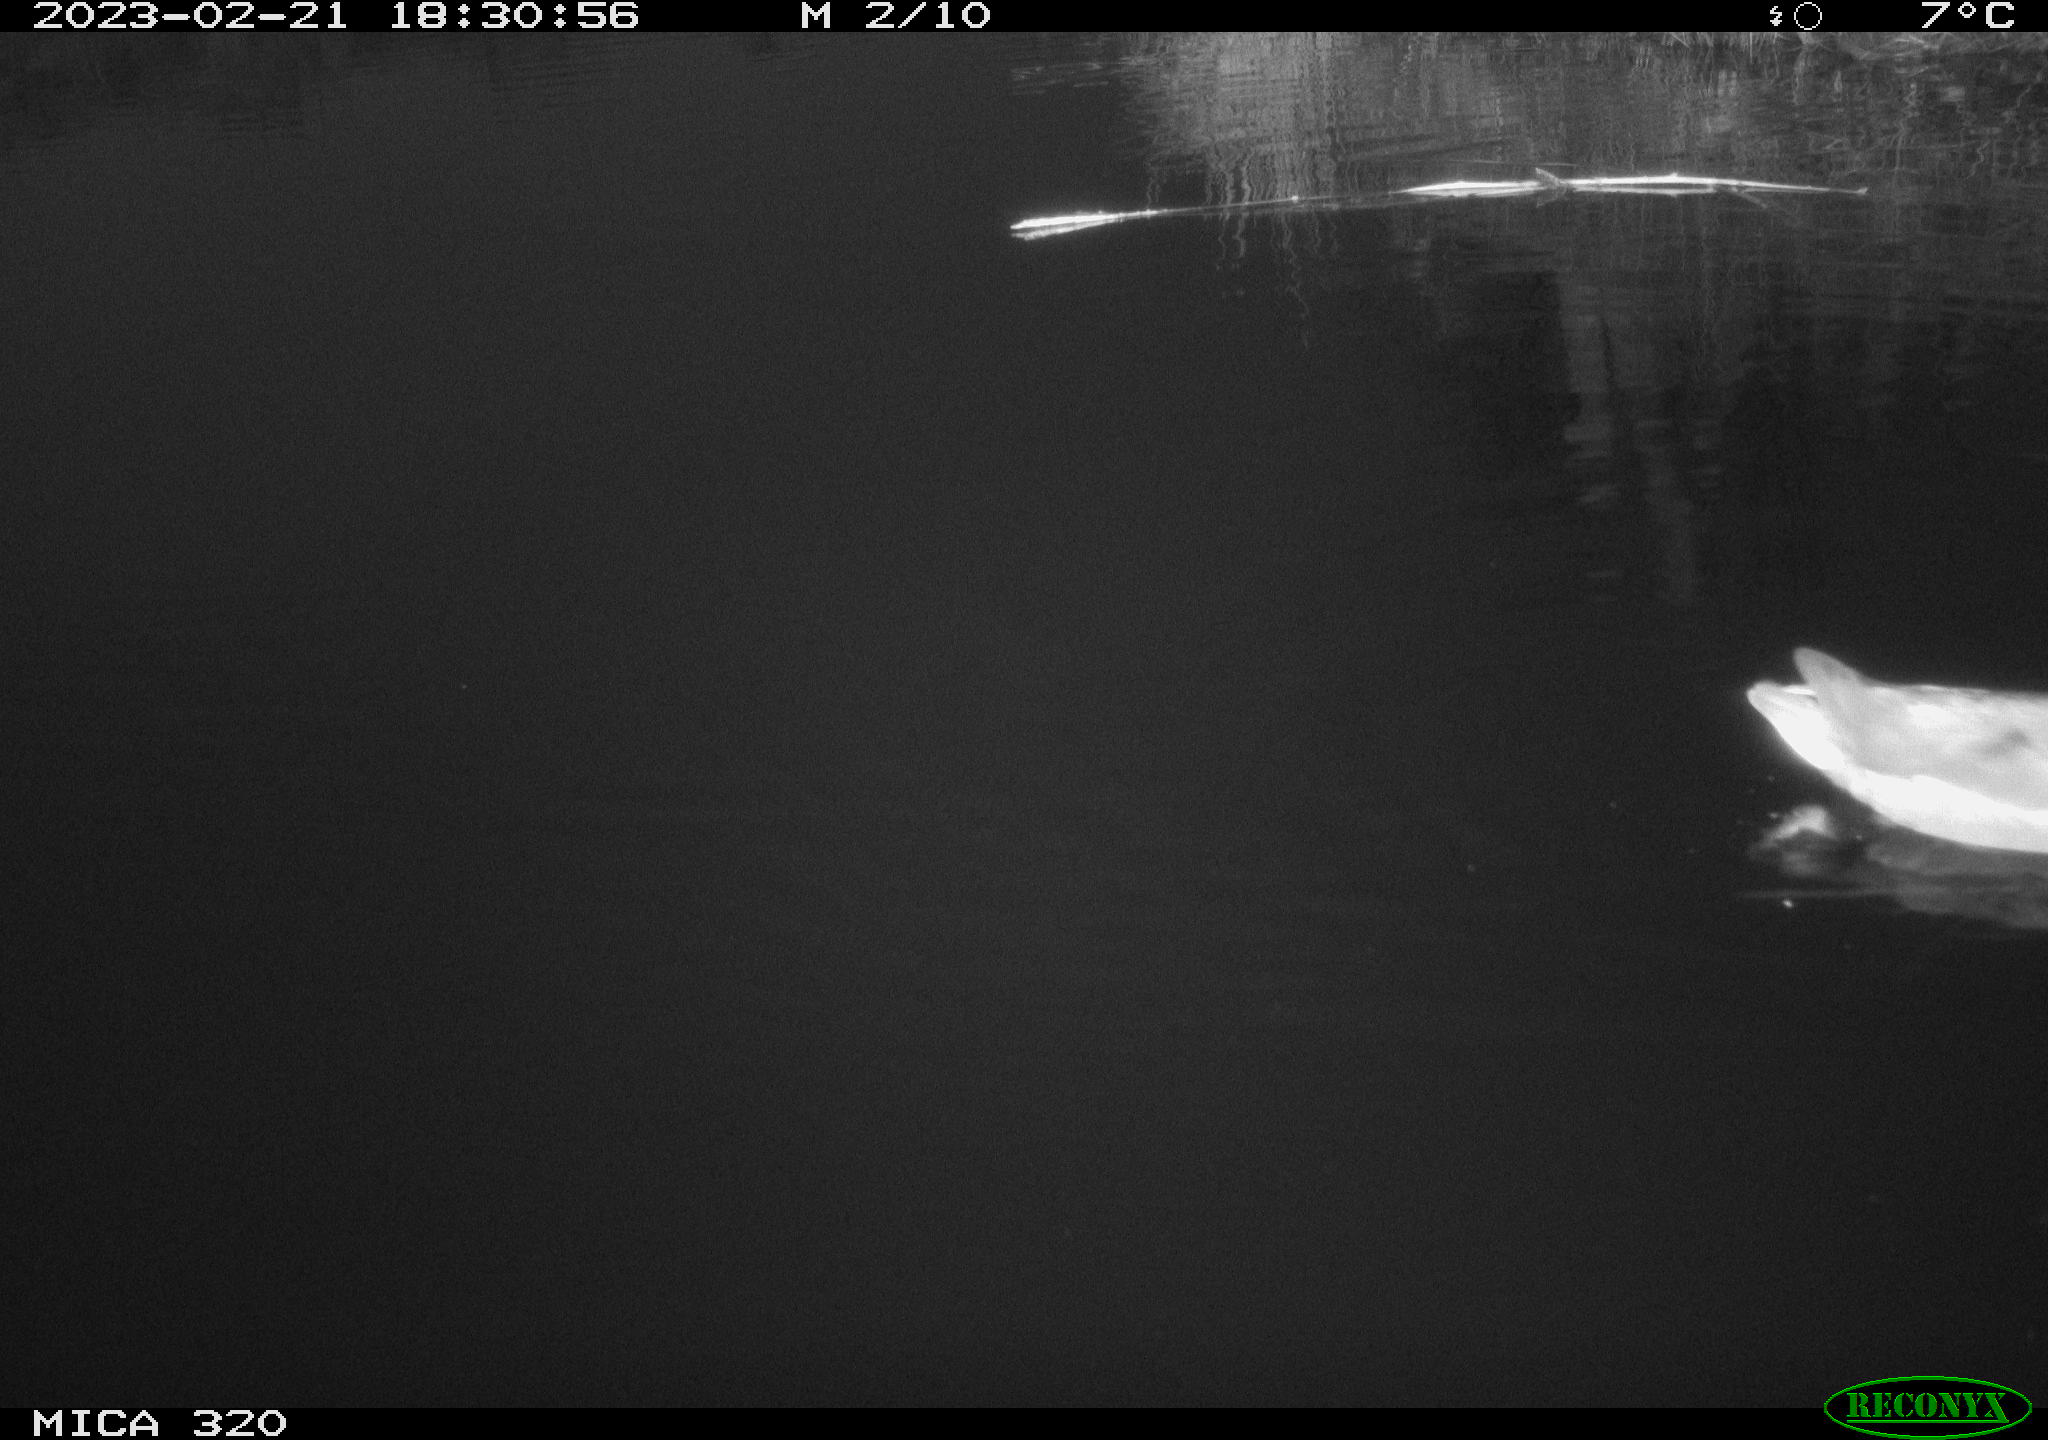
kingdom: Animalia
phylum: Chordata
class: Aves
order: Gruiformes
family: Rallidae
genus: Gallinula
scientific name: Gallinula chloropus
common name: Common moorhen
